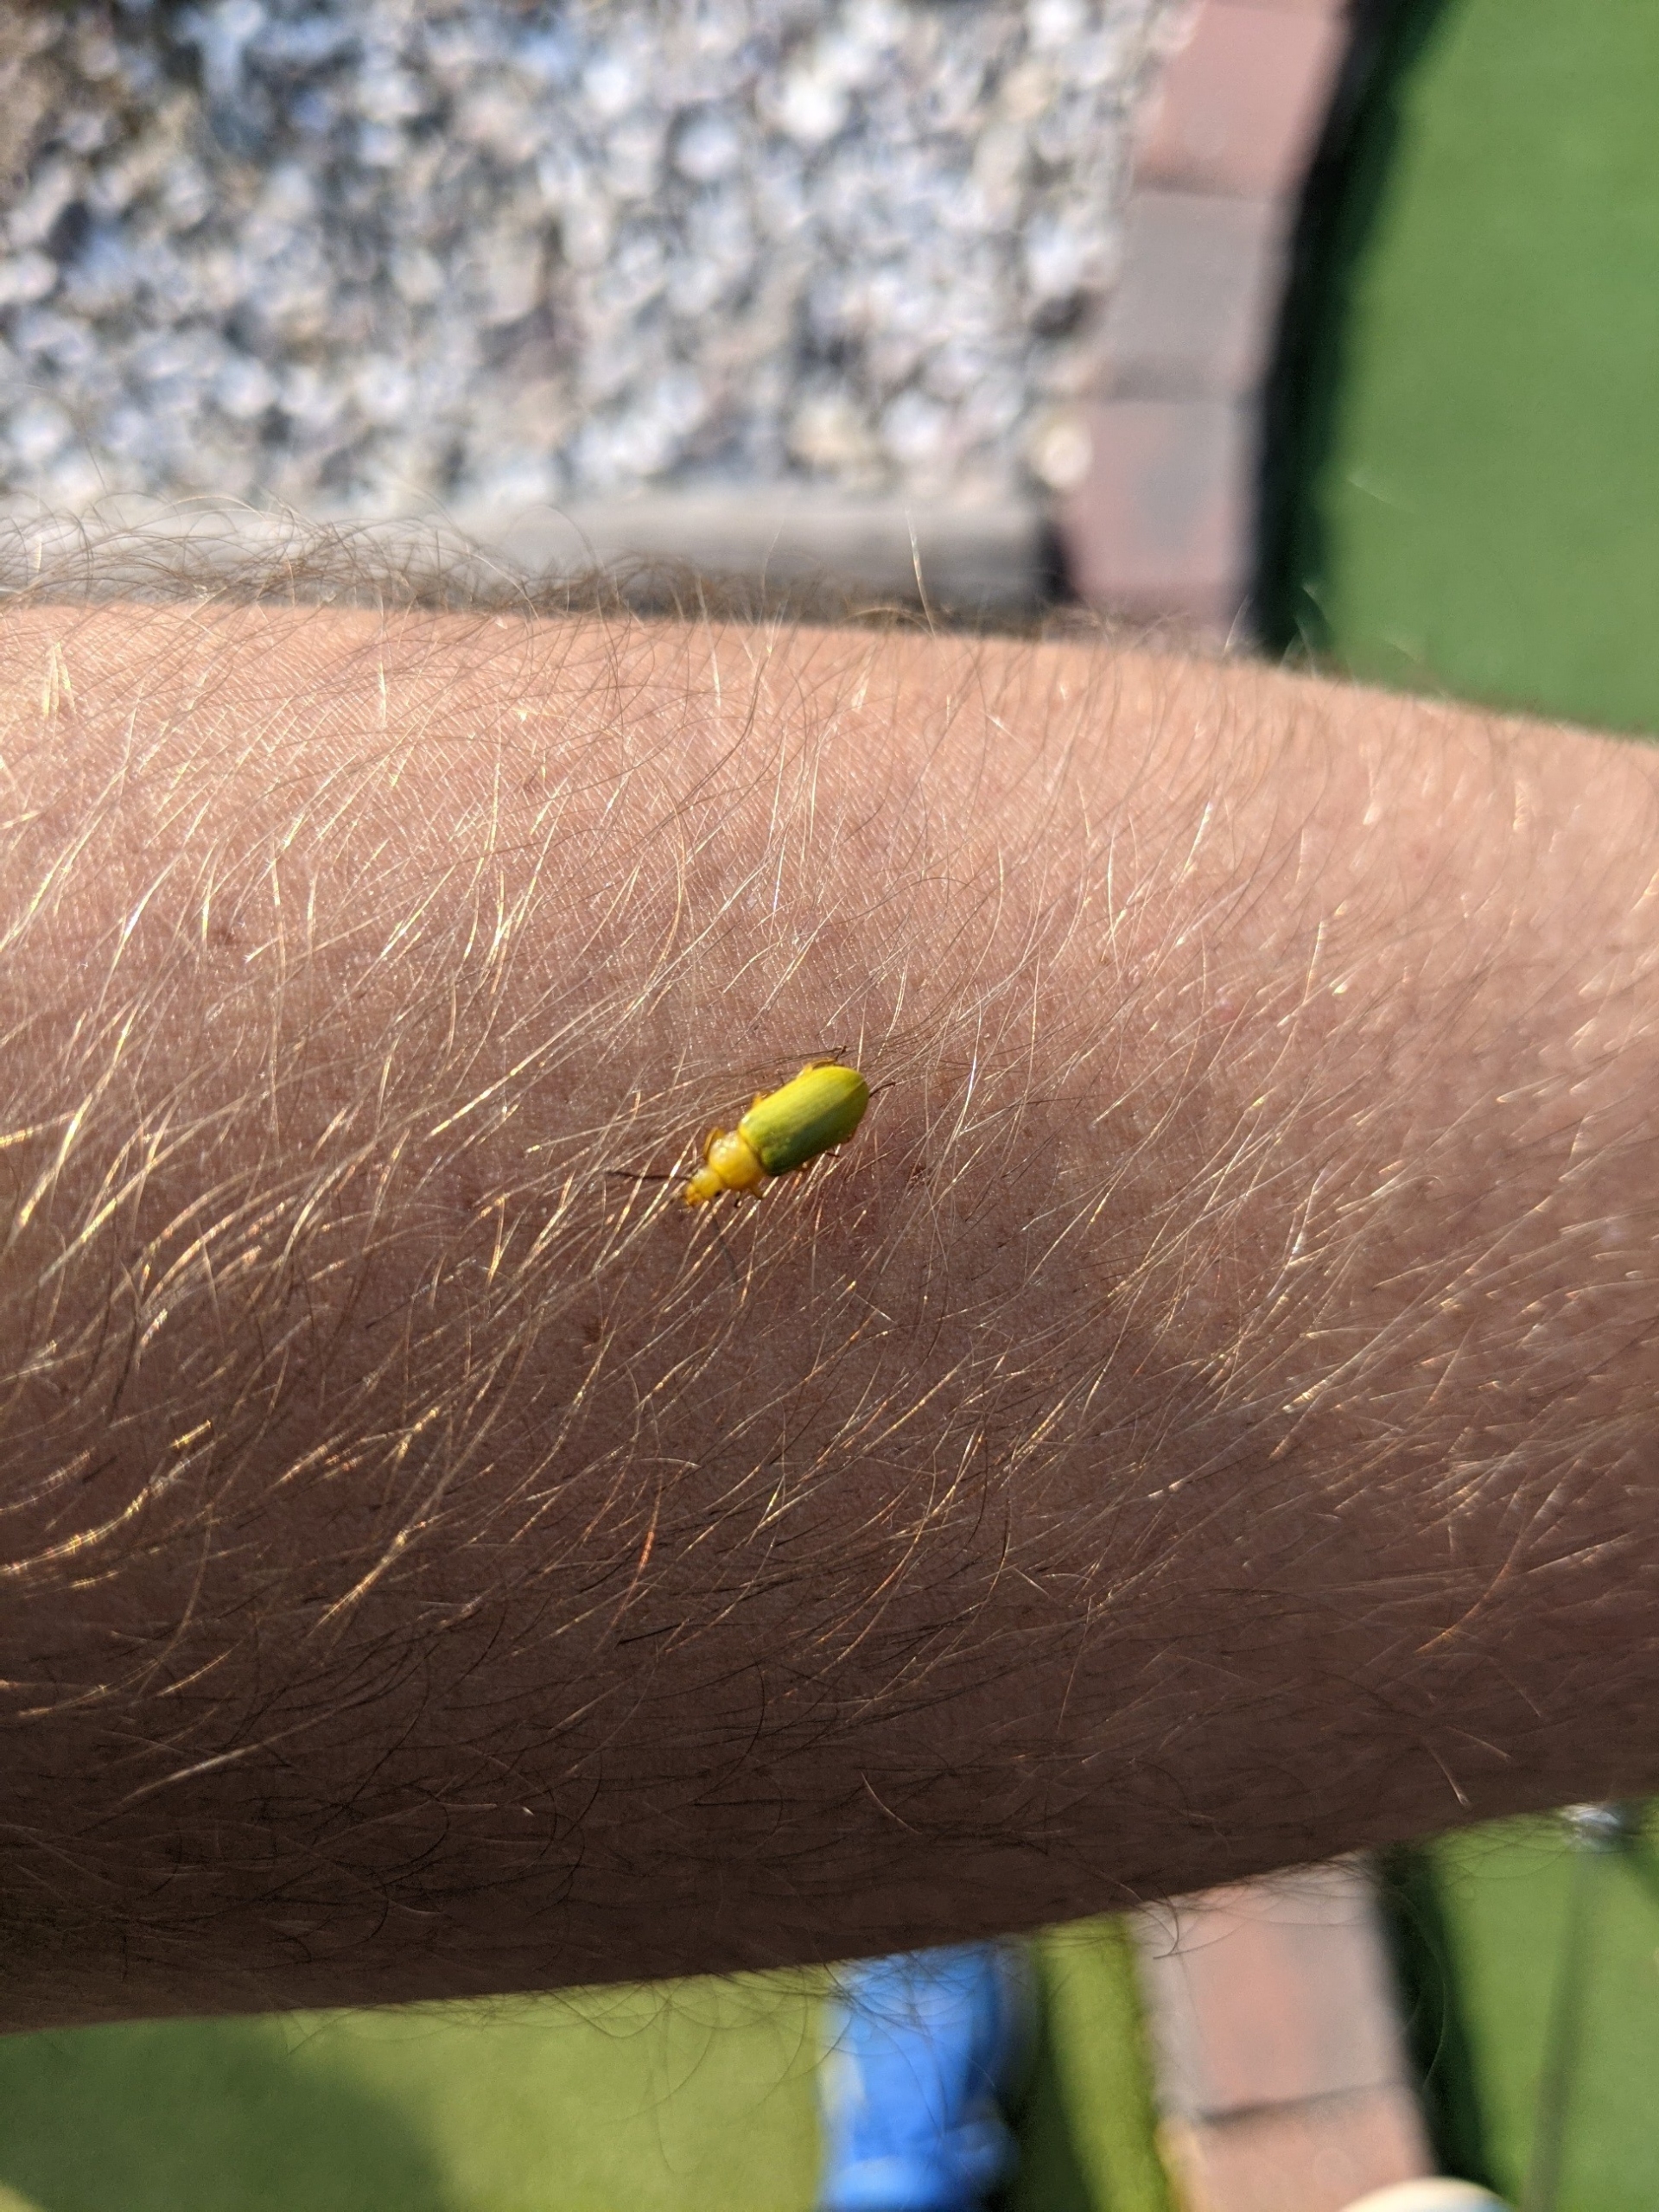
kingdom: Animalia
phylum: Arthropoda
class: Insecta
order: Coleoptera
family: Tenebrionidae
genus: Cteniopus
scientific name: Cteniopus sulphureus
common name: Svovlgul skyggebille
